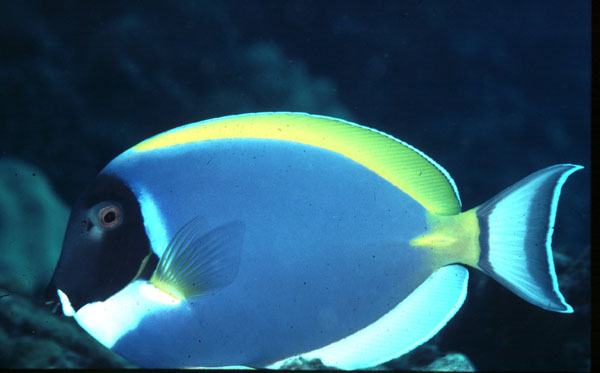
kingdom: Animalia
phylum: Chordata
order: Perciformes
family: Acanthuridae
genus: Acanthurus
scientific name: Acanthurus leucosternon
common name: Blue surgeonfish
